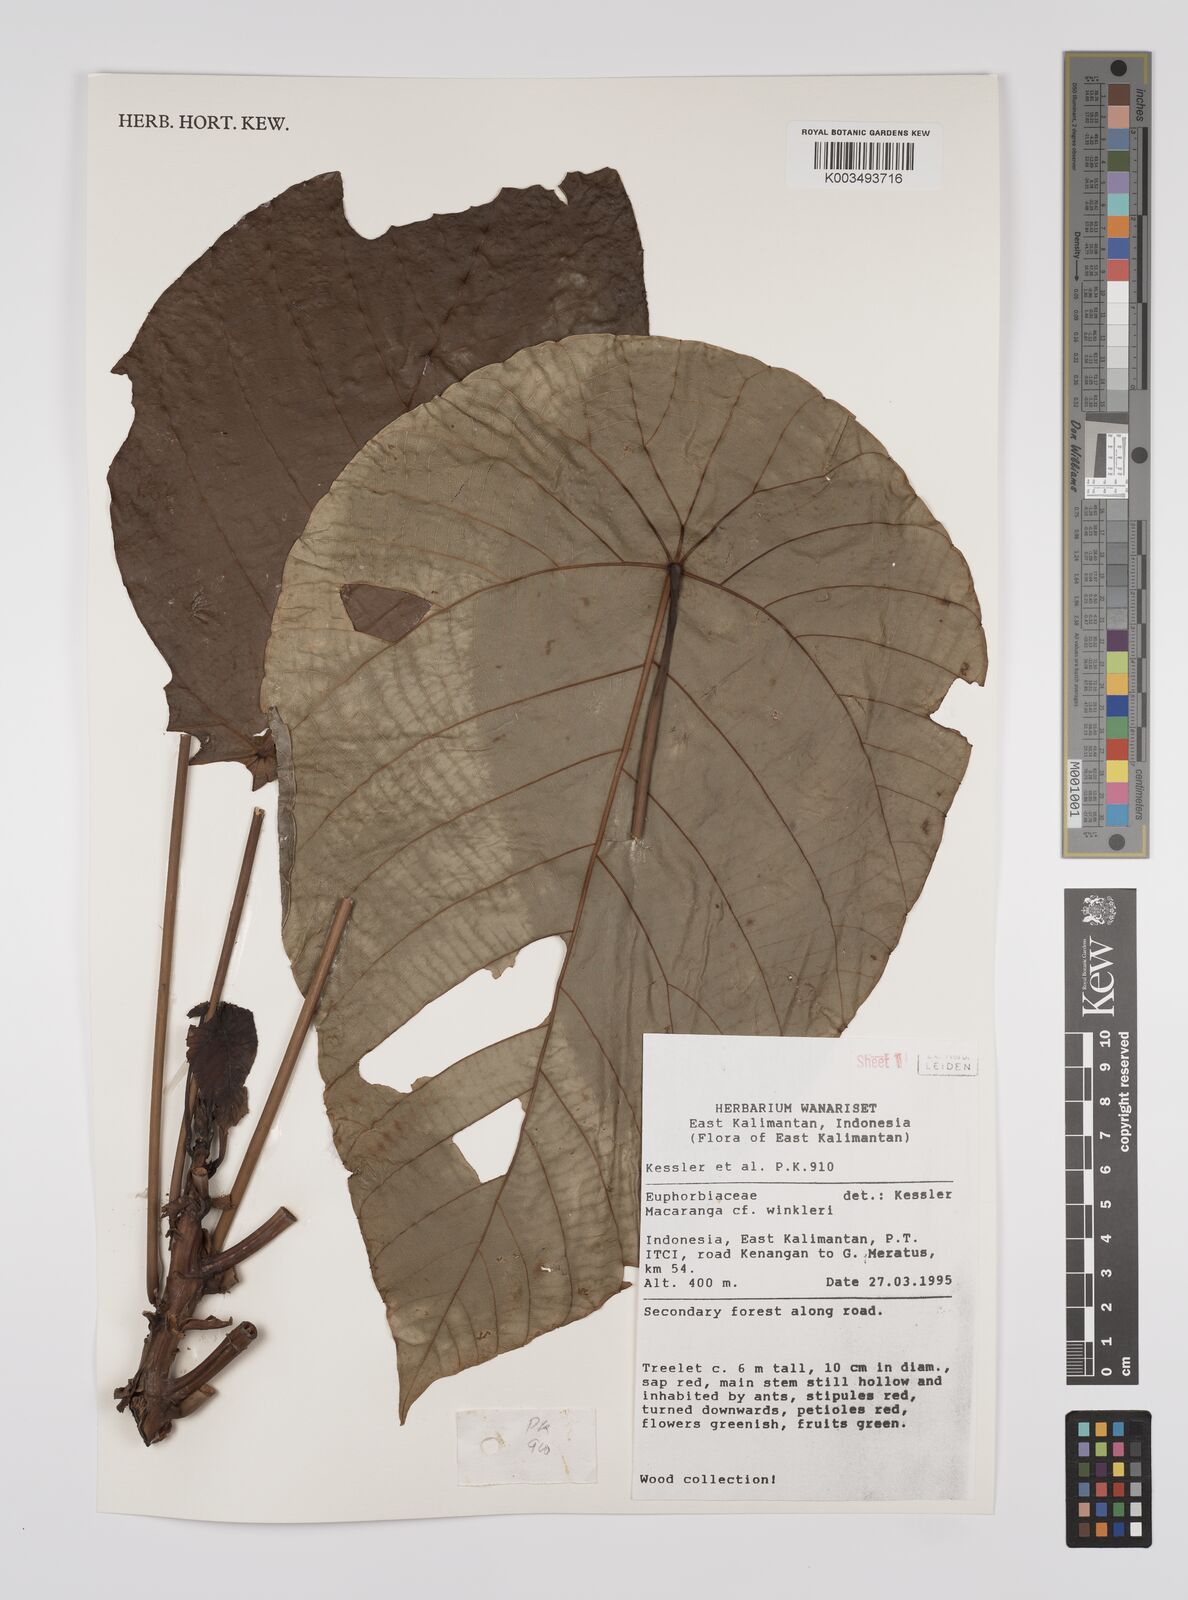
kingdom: Plantae
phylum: Tracheophyta
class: Magnoliopsida
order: Malpighiales
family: Euphorbiaceae
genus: Macaranga
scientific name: Macaranga winkleri
